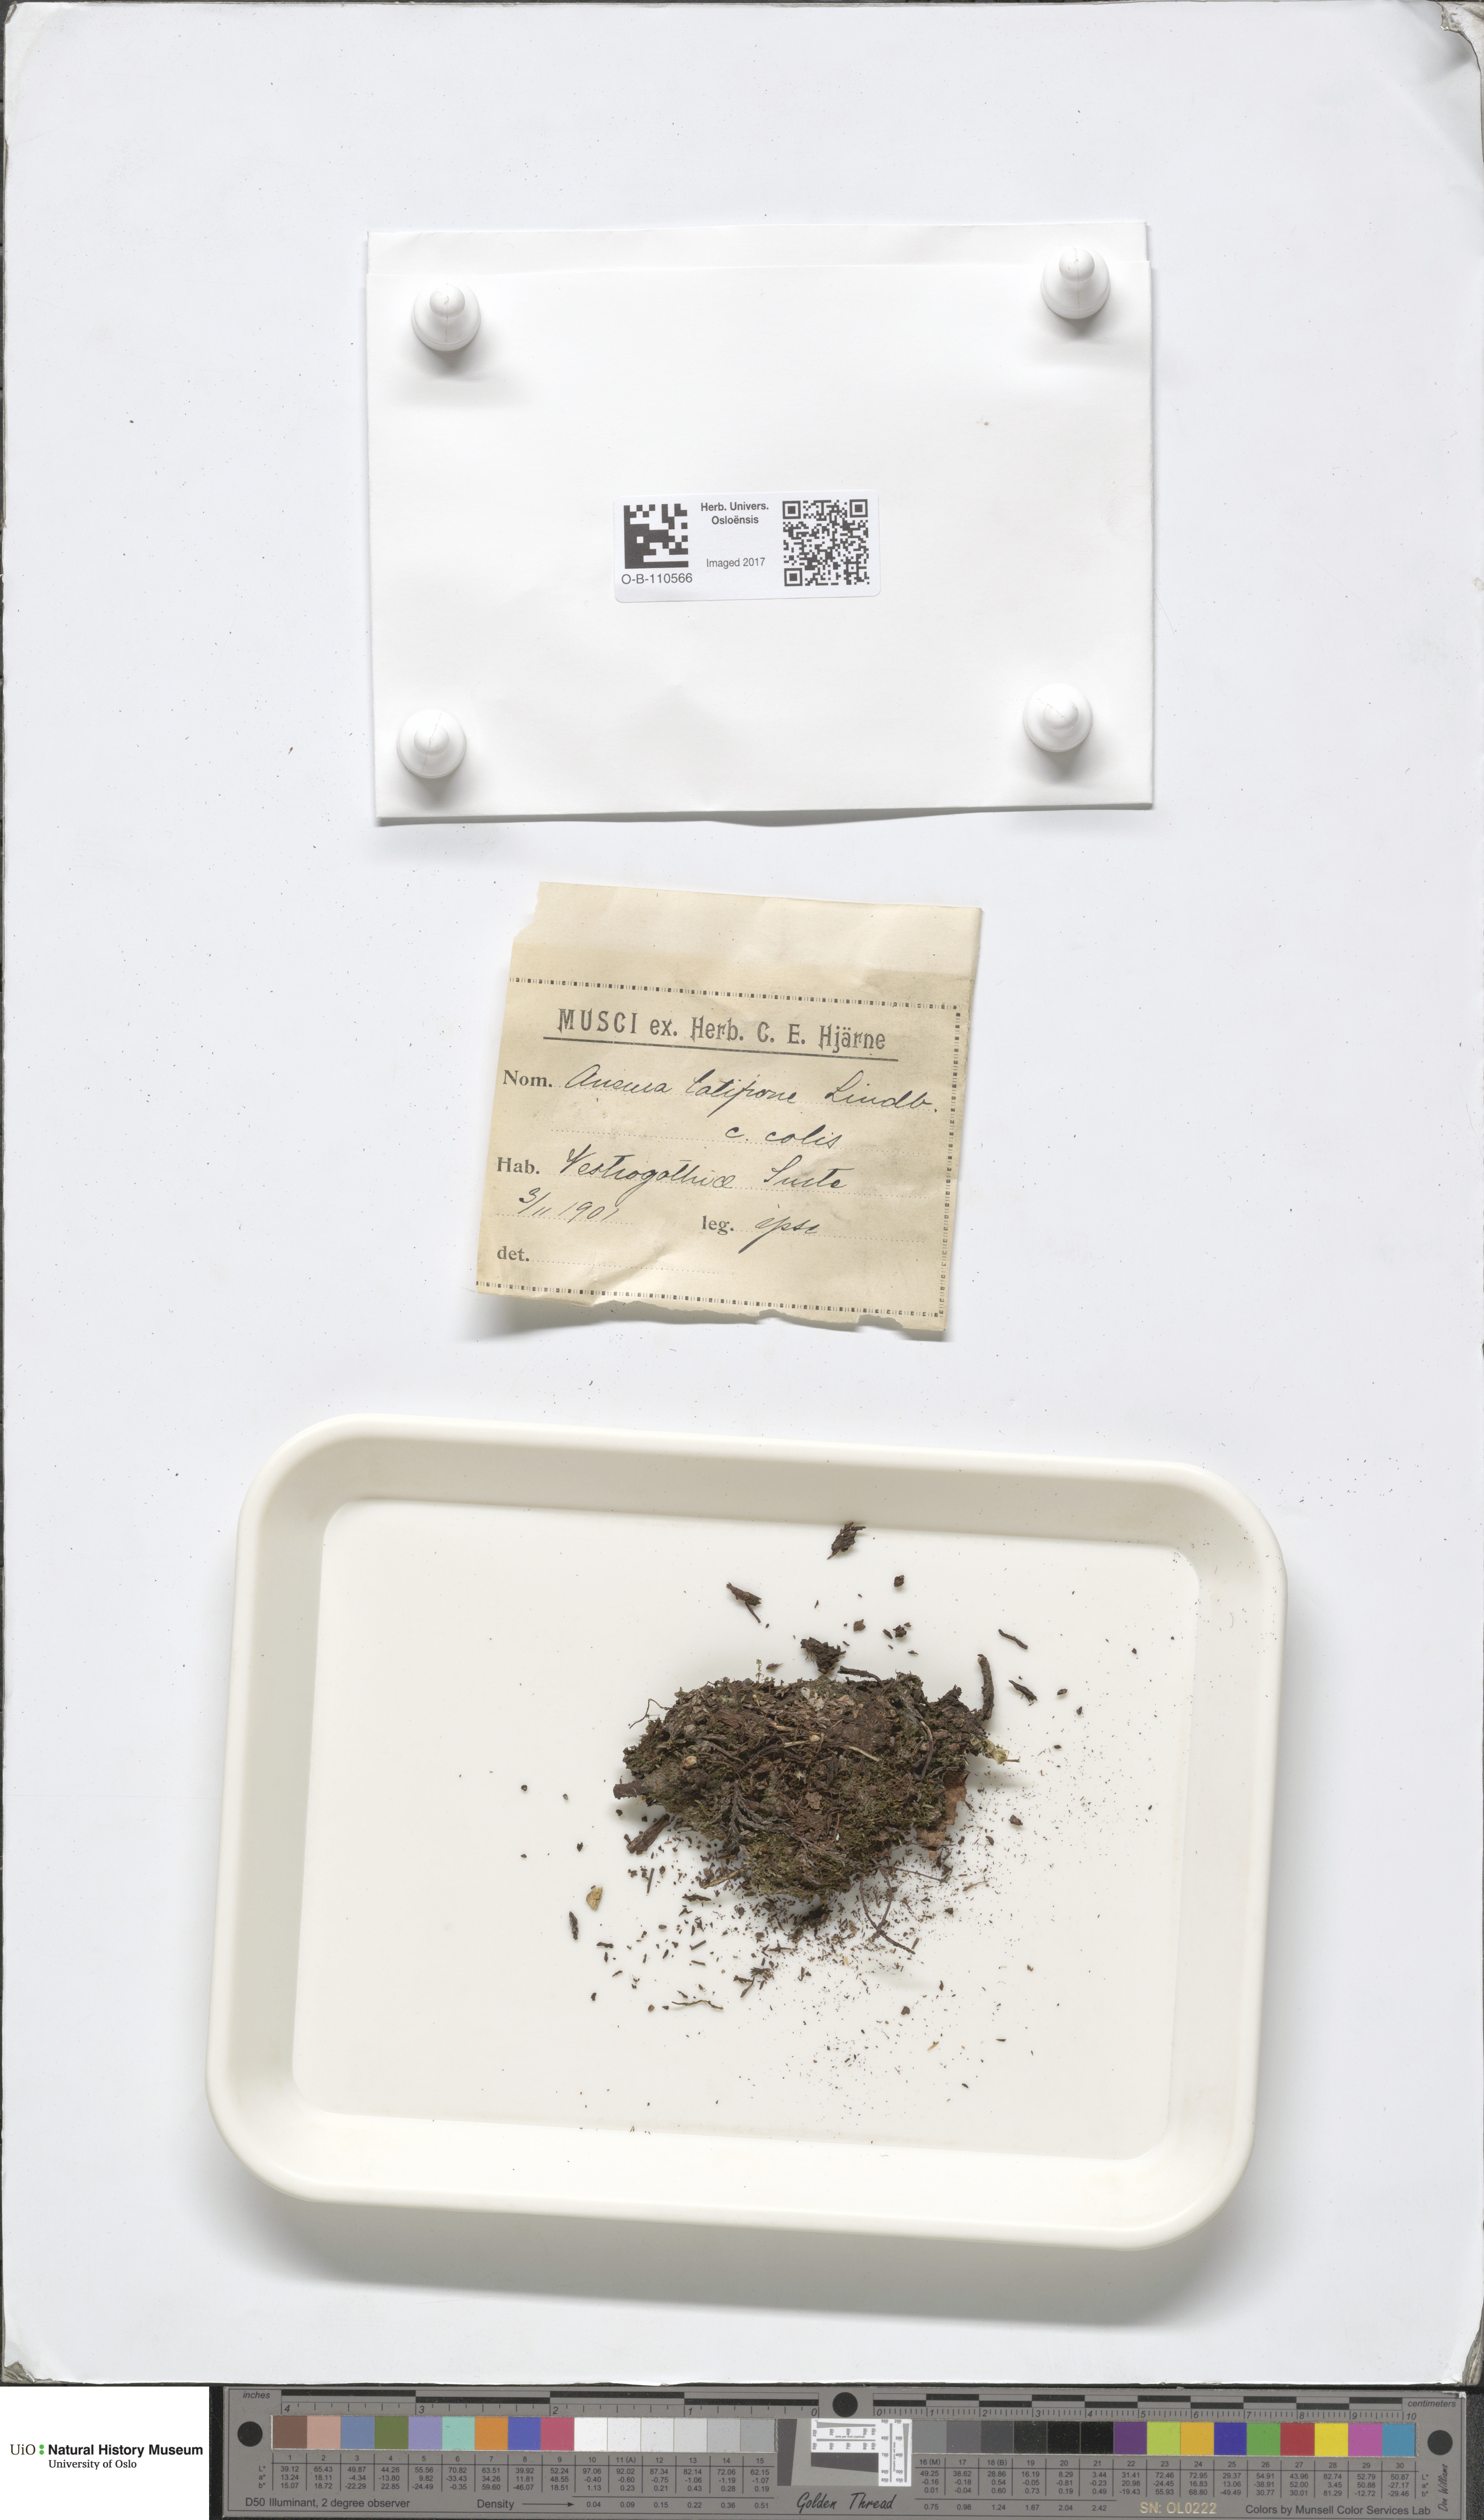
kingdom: Plantae
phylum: Marchantiophyta
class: Jungermanniopsida
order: Metzgeriales
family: Aneuraceae
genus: Riccardia
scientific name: Riccardia latifrons
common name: Bog germanderwort
